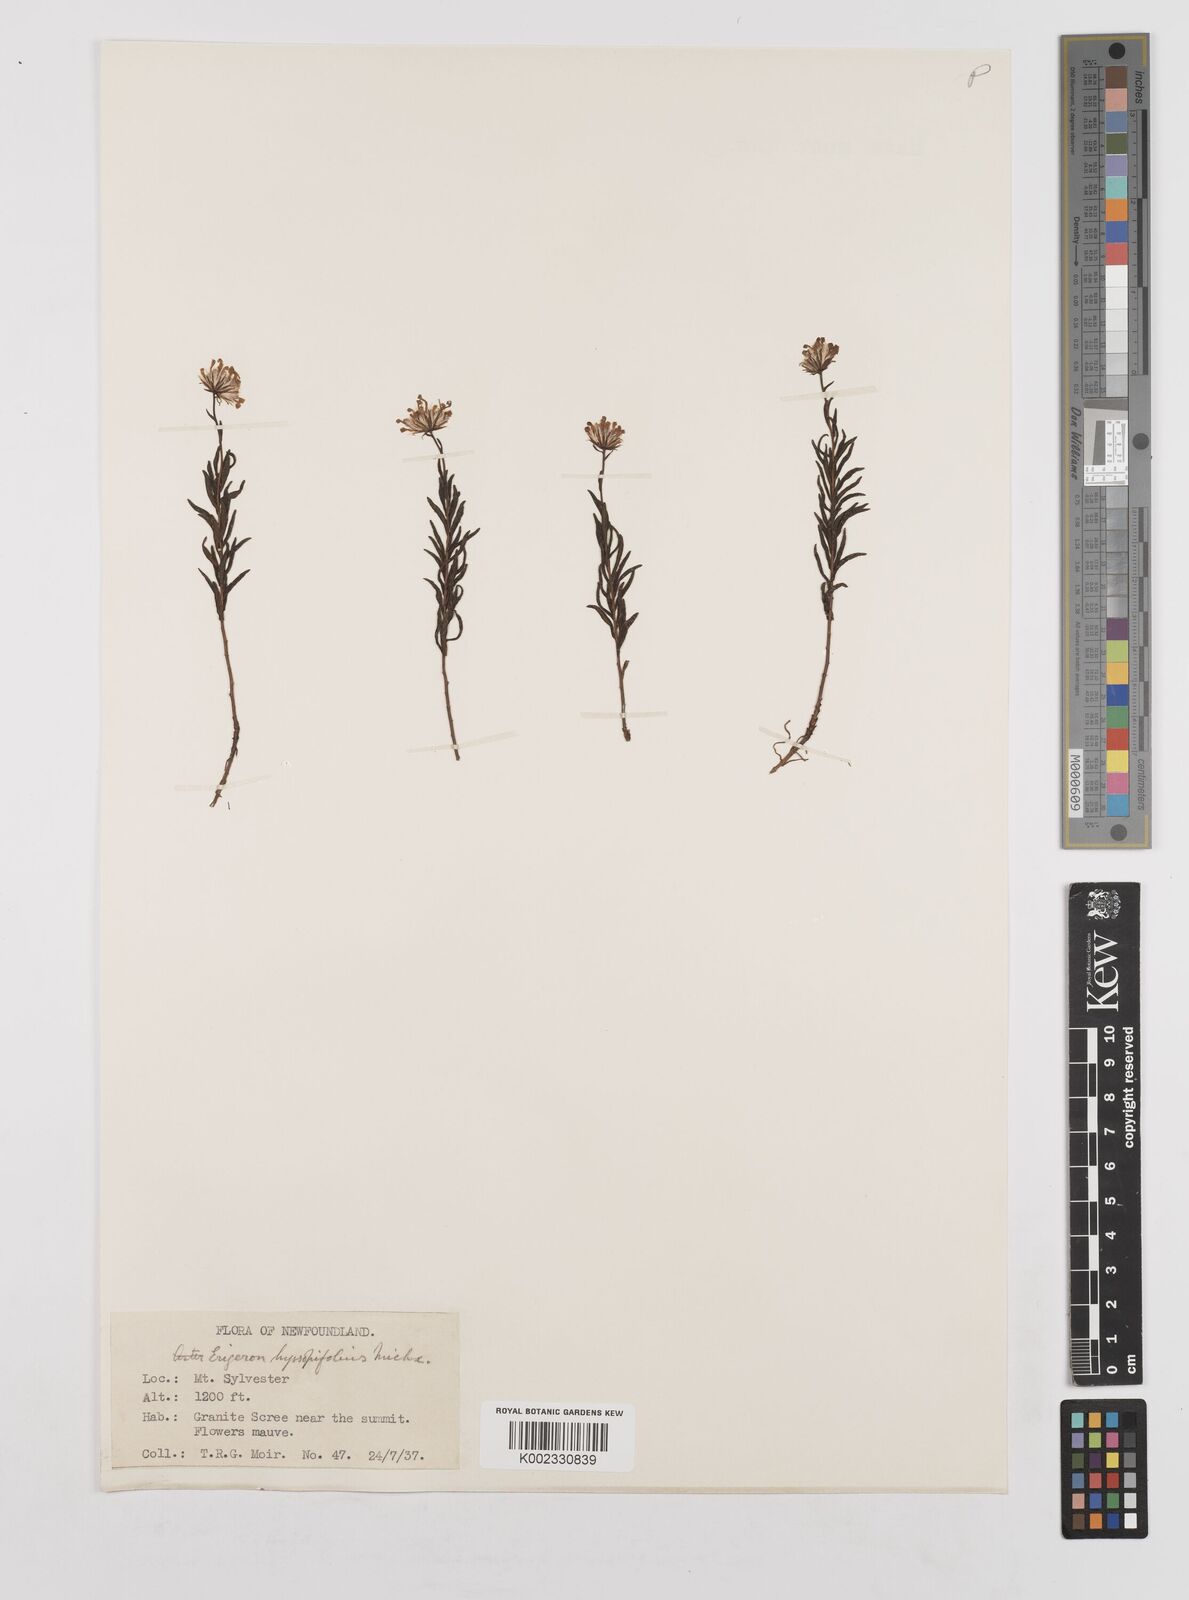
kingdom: Plantae
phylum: Tracheophyta
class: Magnoliopsida
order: Asterales
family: Asteraceae
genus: Erigeron
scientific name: Erigeron hyssopifolius
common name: Daisy fleabane
